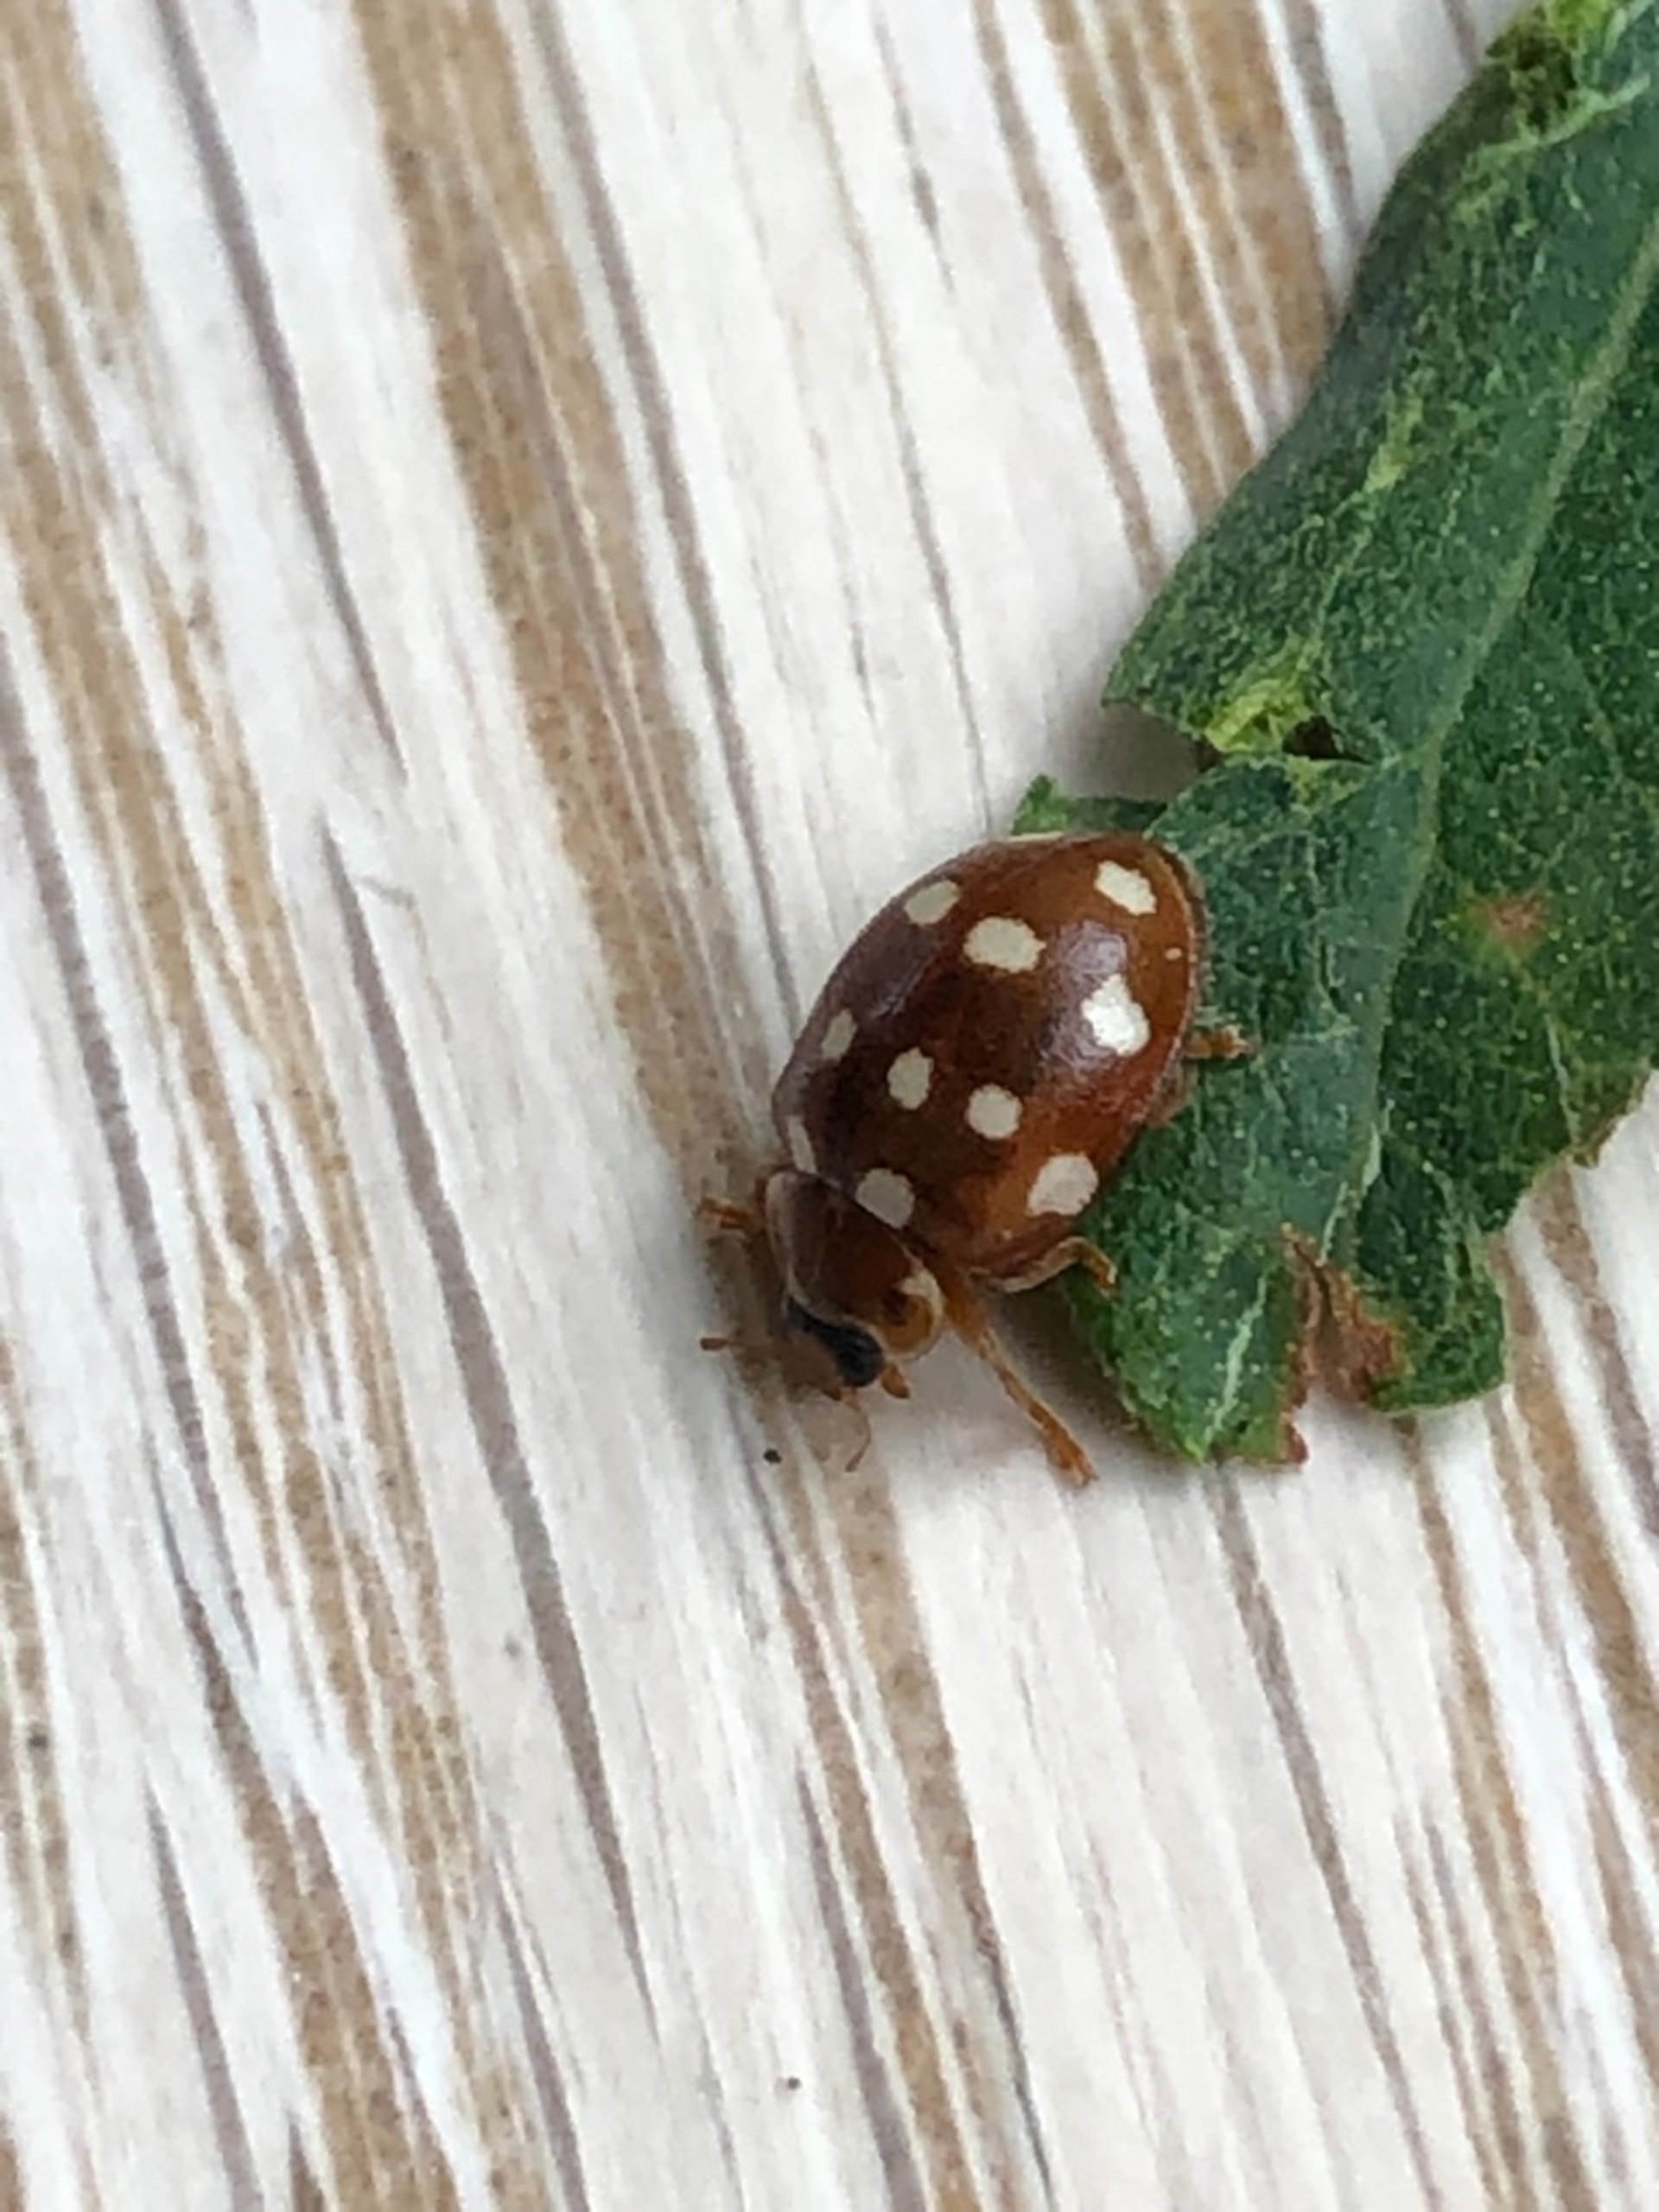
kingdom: Animalia
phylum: Arthropoda
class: Insecta
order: Coleoptera
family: Coccinellidae
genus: Calvia
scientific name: Calvia quatuordecimguttata
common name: Fjortenplettet mariehøne
